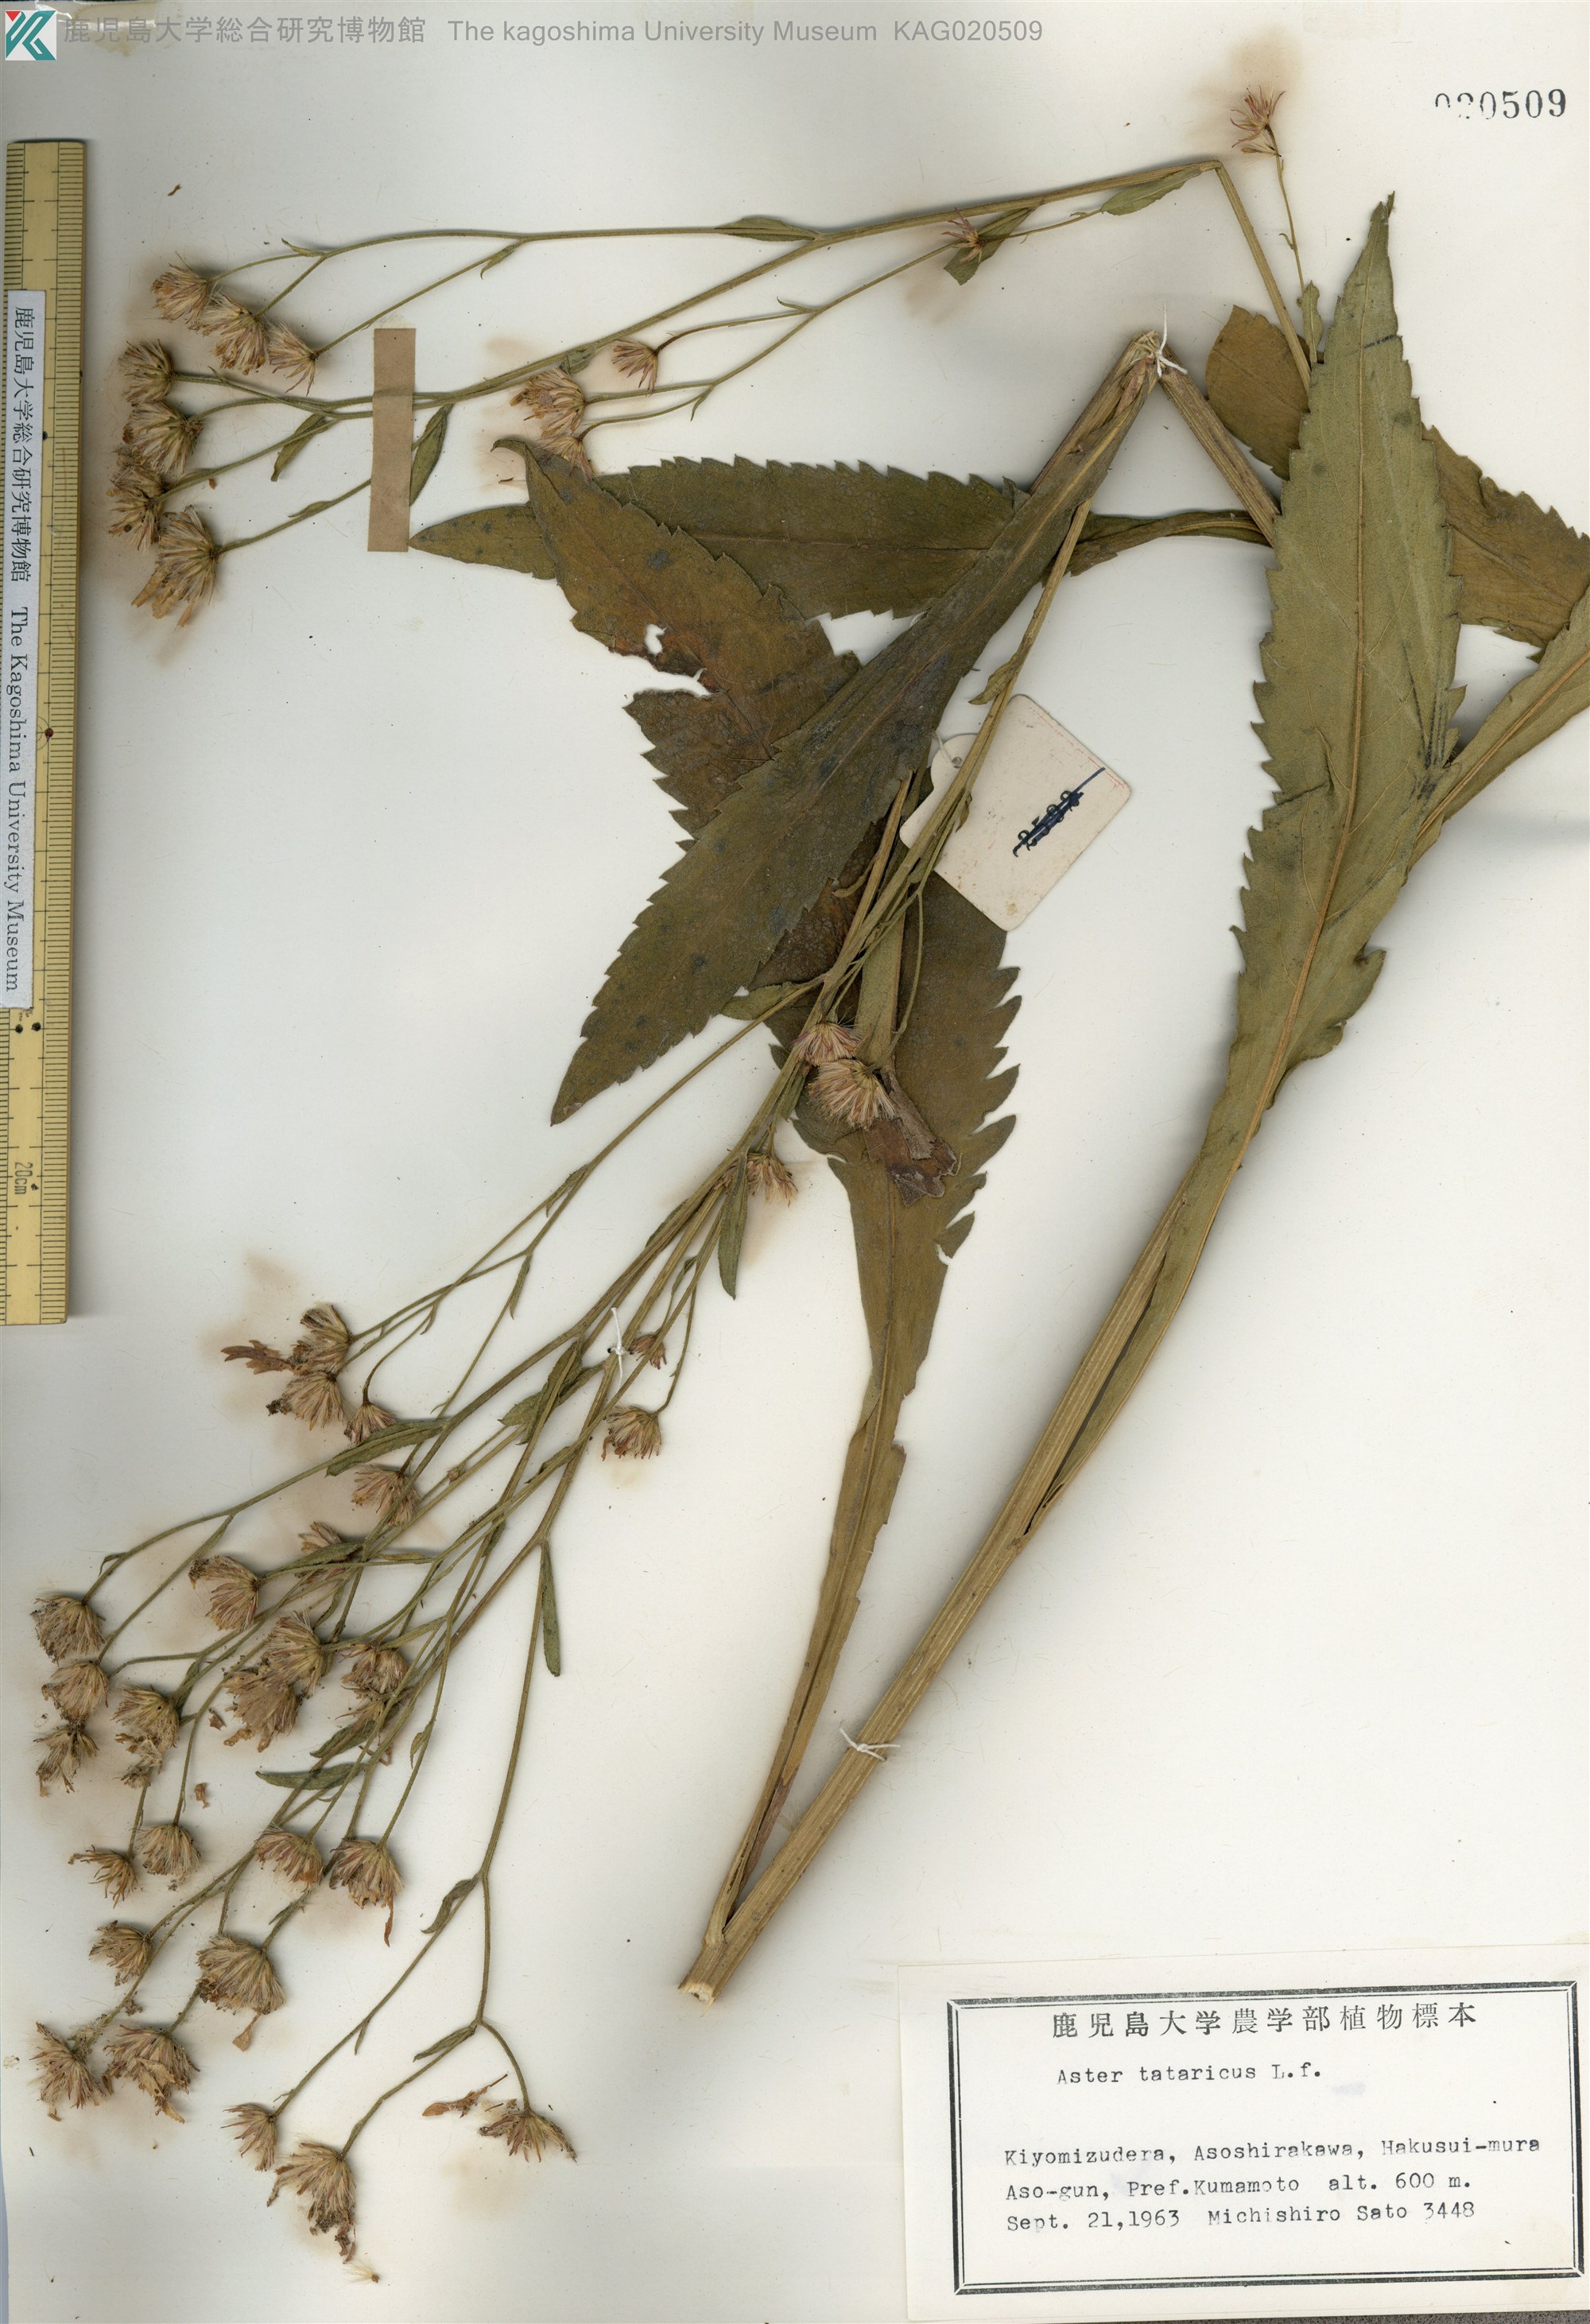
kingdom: Plantae
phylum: Tracheophyta
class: Magnoliopsida
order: Asterales
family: Asteraceae
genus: Aster
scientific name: Aster tataricus
